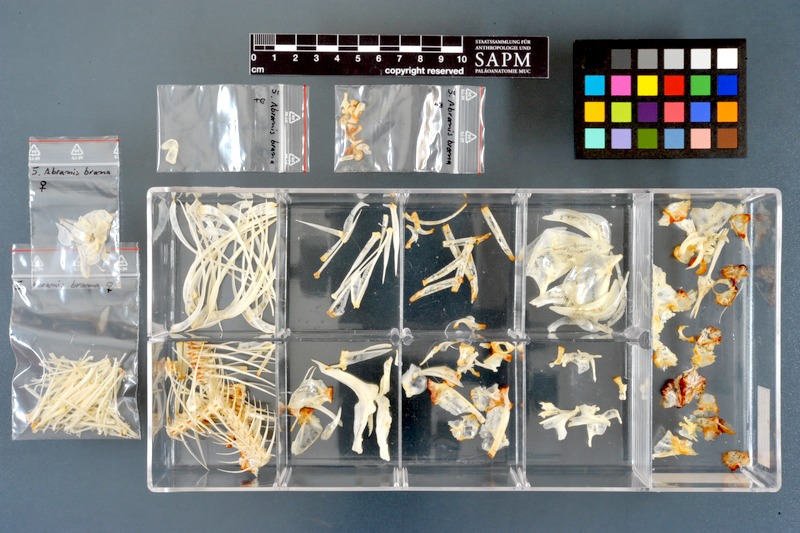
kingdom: Animalia
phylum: Chordata
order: Cypriniformes
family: Cyprinidae
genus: Abramis
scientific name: Abramis brama
